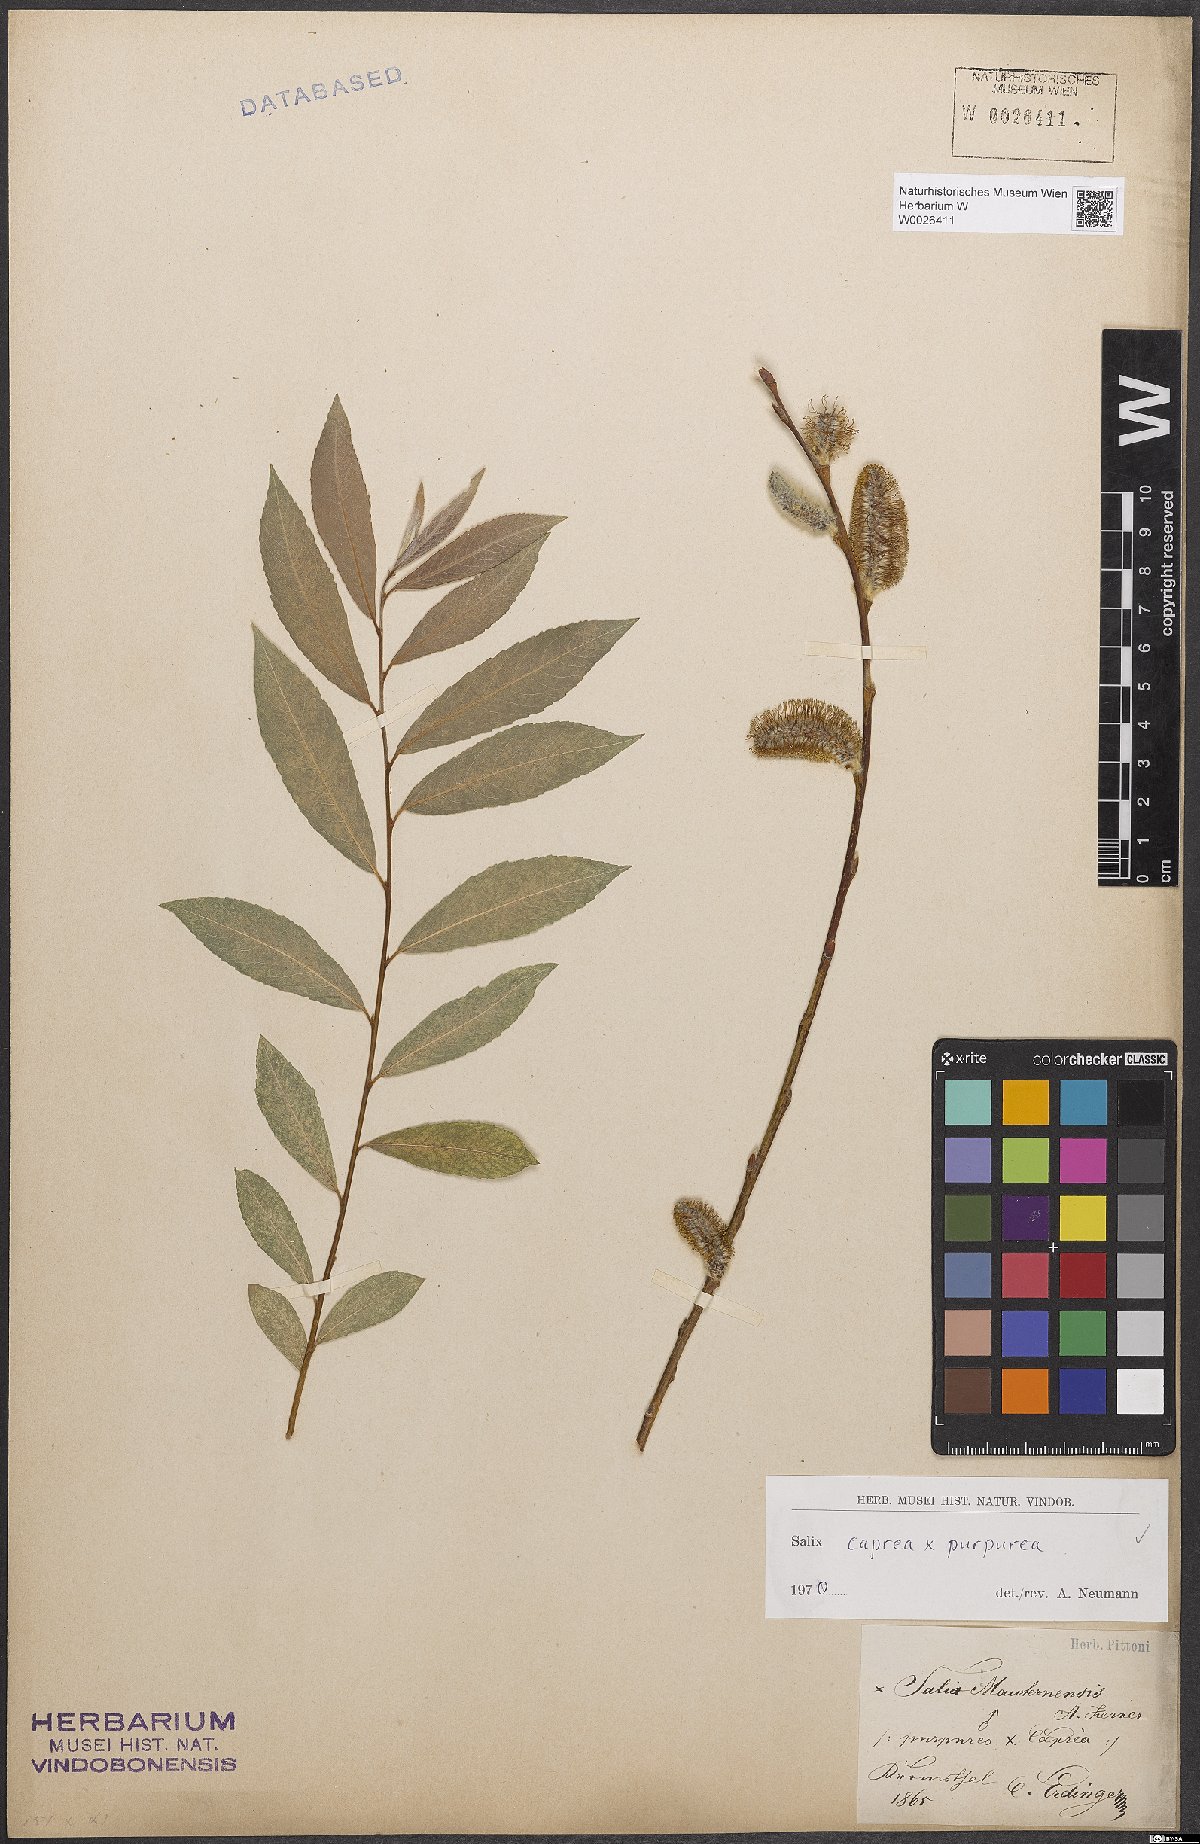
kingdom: Plantae
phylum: Tracheophyta
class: Magnoliopsida
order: Malpighiales
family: Salicaceae
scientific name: Salicaceae
